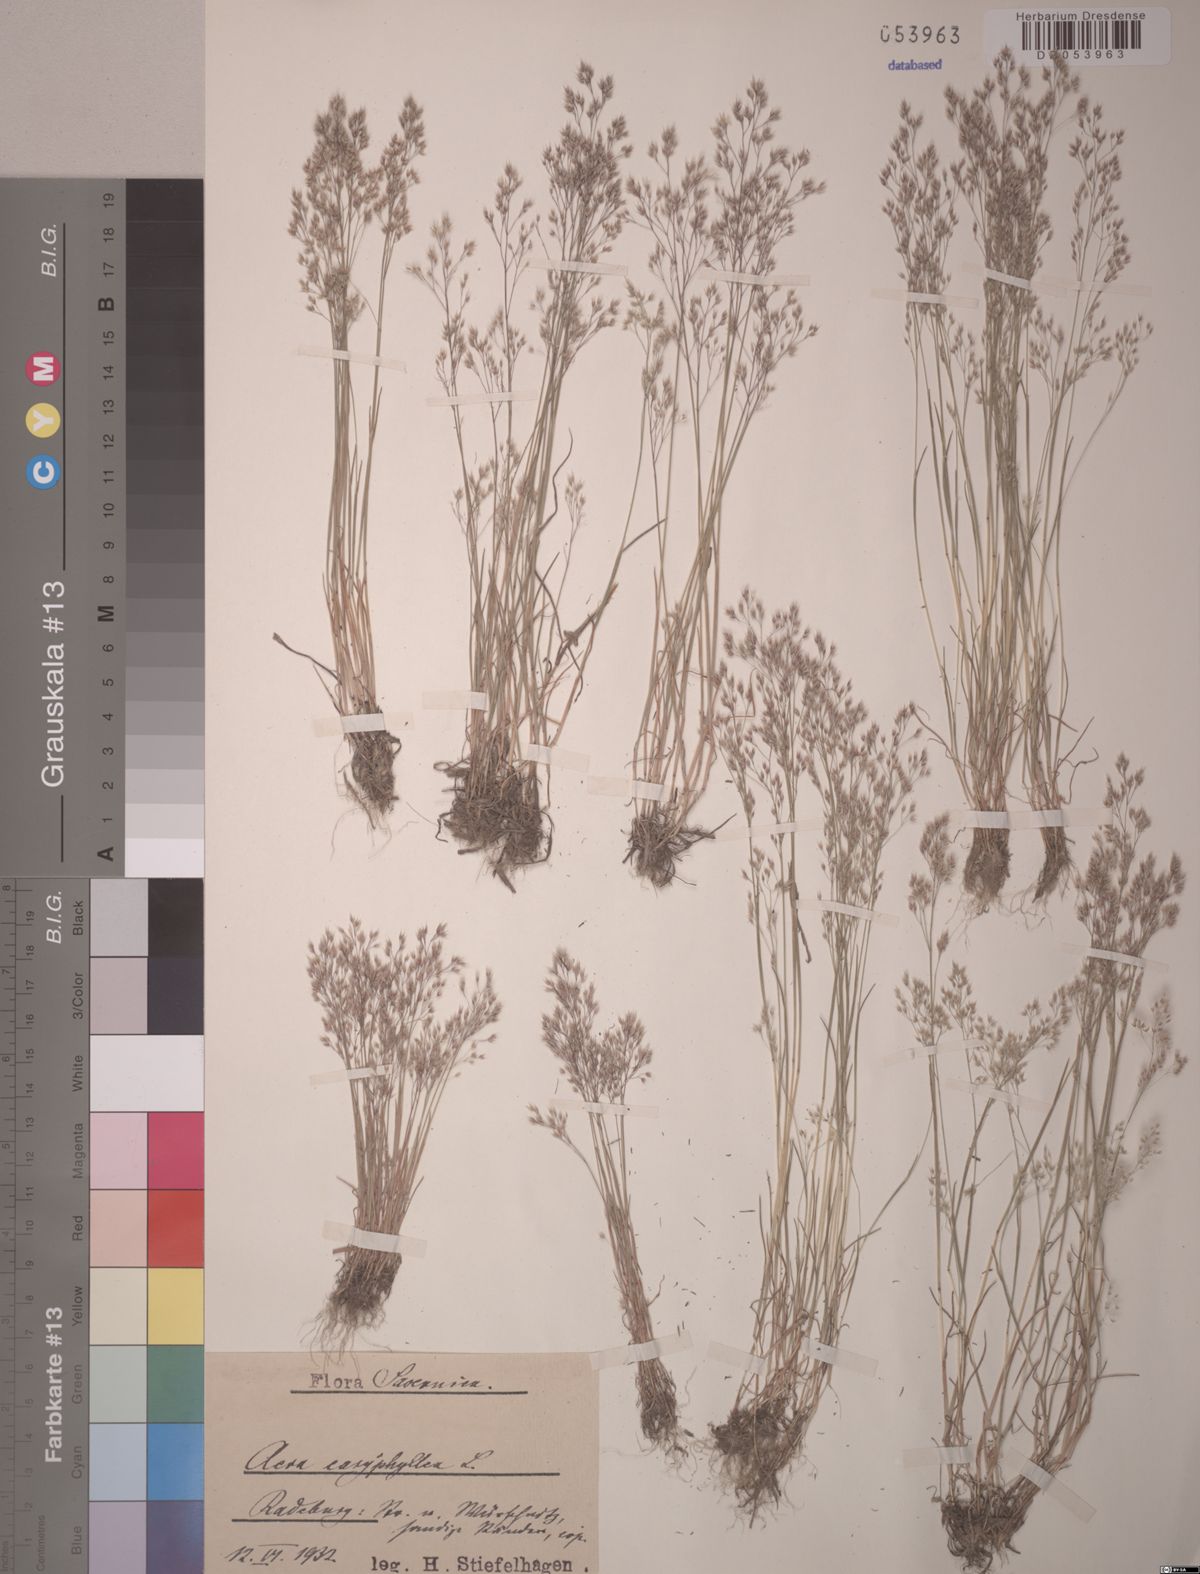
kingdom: Plantae
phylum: Tracheophyta
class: Liliopsida
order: Poales
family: Poaceae
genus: Aira
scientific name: Aira caryophyllea
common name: Silver hairgrass
